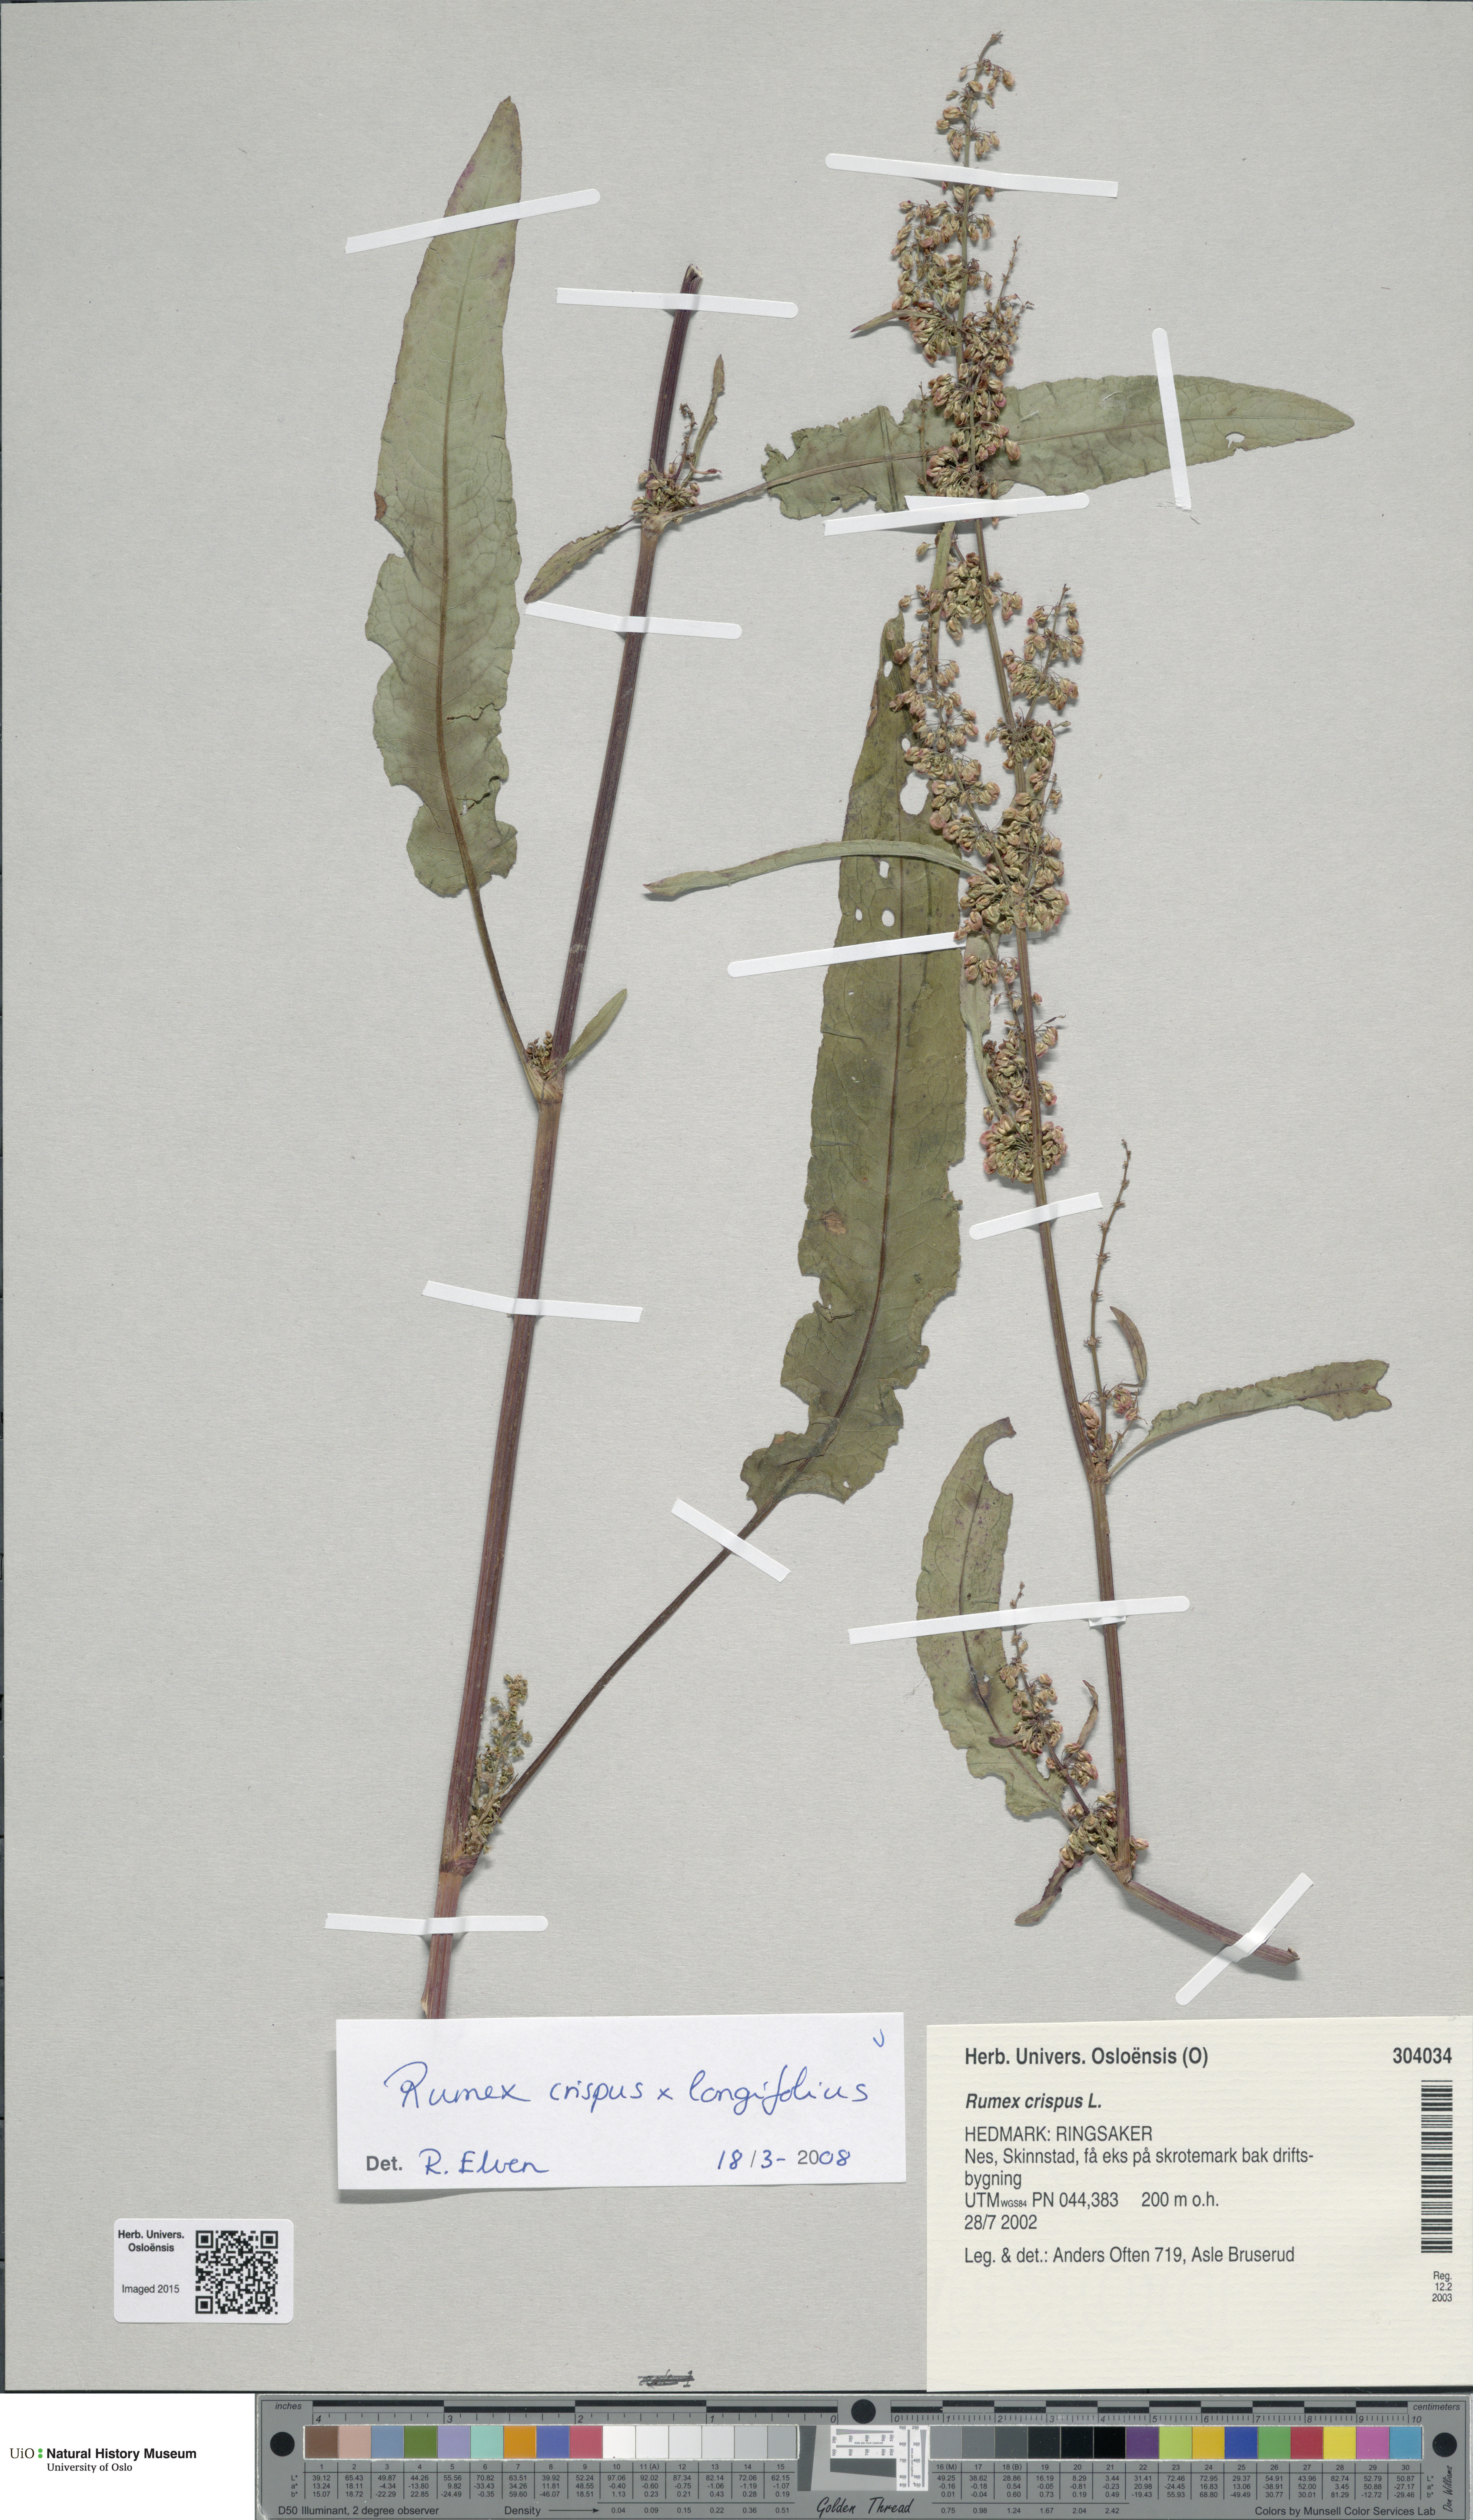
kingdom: Plantae
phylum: Tracheophyta
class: Magnoliopsida
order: Caryophyllales
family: Polygonaceae
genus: Rumex
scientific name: Rumex
